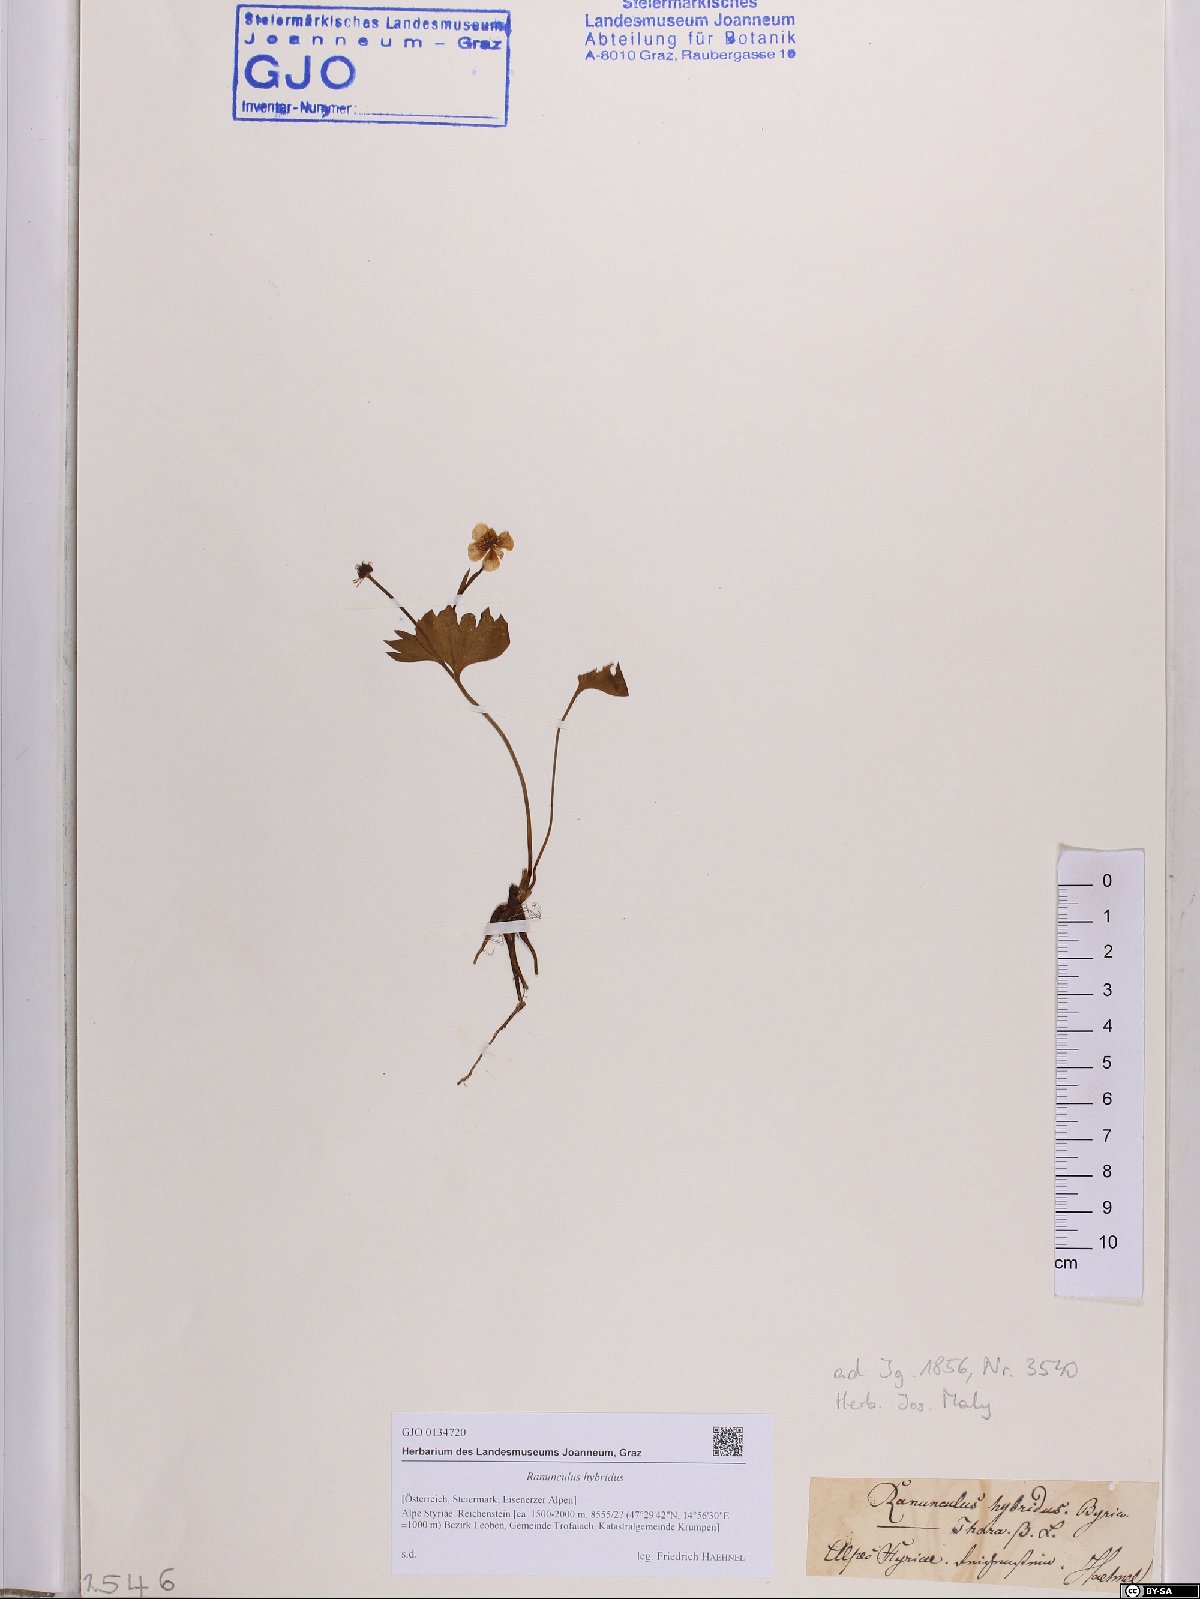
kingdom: Plantae
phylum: Tracheophyta
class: Magnoliopsida
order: Ranunculales
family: Ranunculaceae
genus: Ranunculus
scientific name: Ranunculus hybridus
